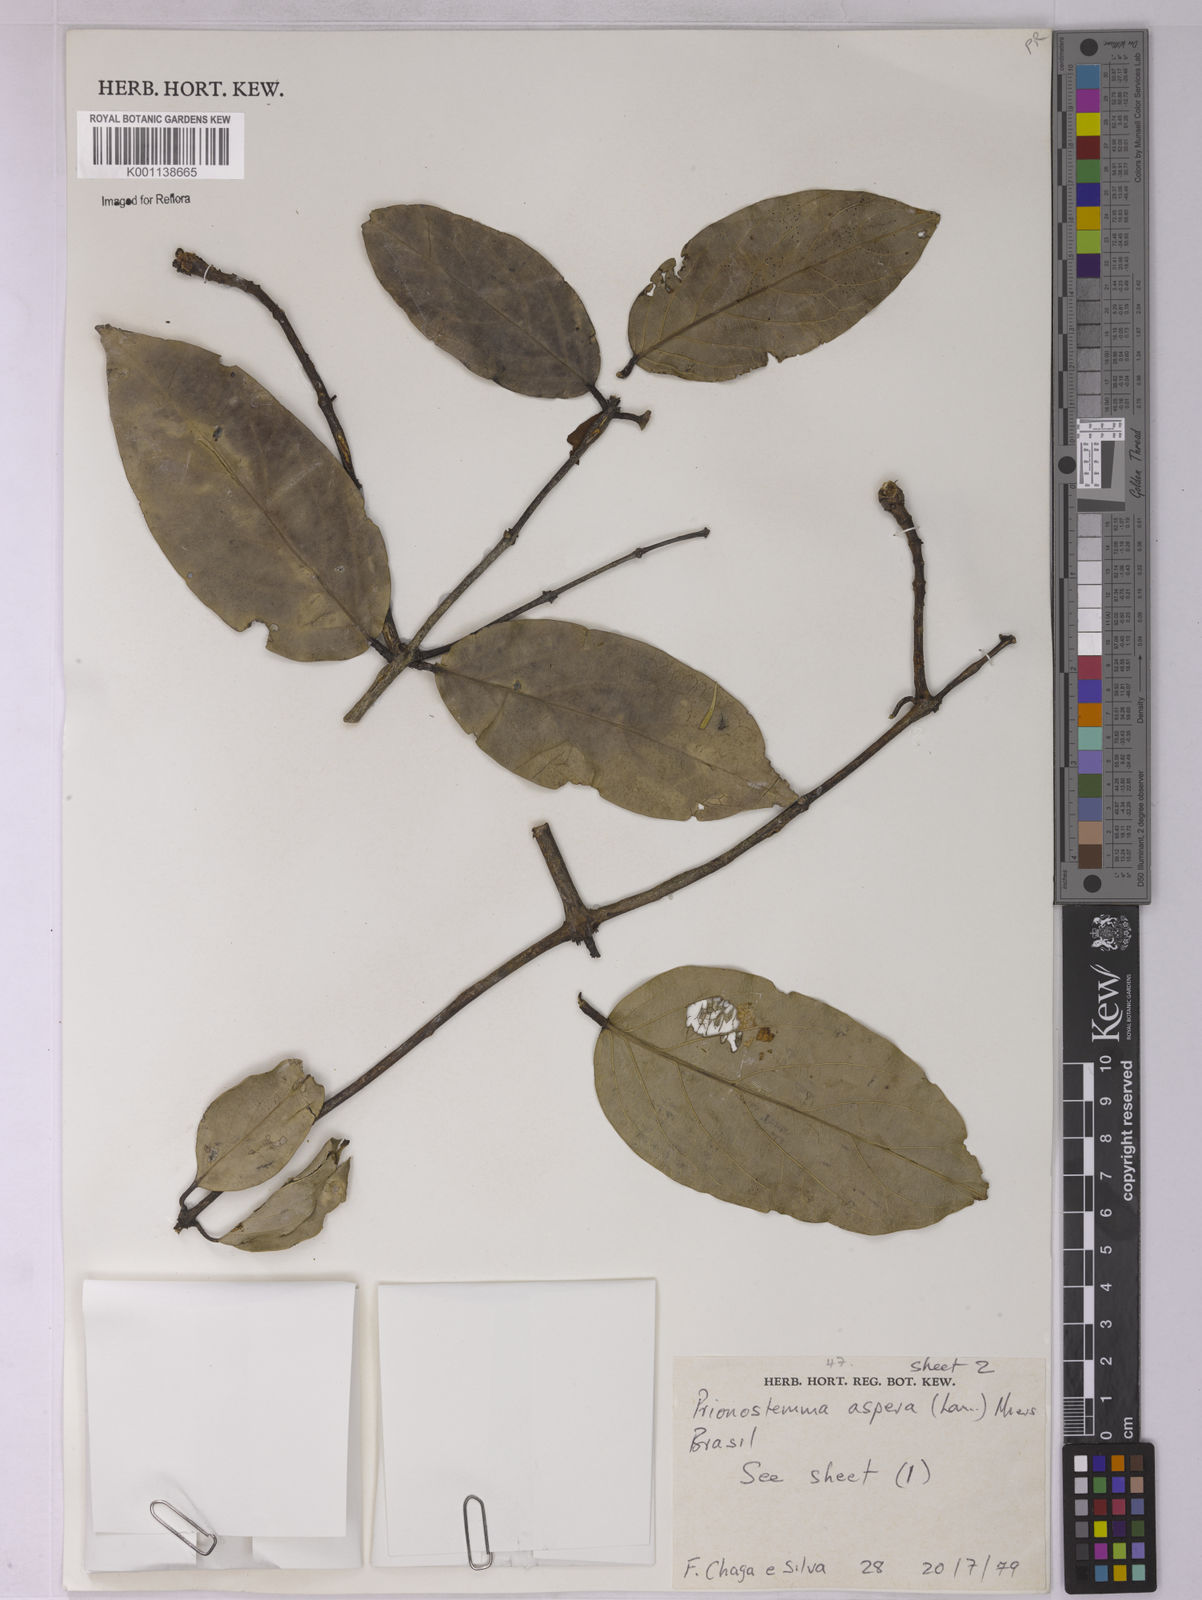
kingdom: Plantae
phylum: Tracheophyta
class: Magnoliopsida
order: Celastrales
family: Celastraceae
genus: Prionostemma
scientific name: Prionostemma aspera
